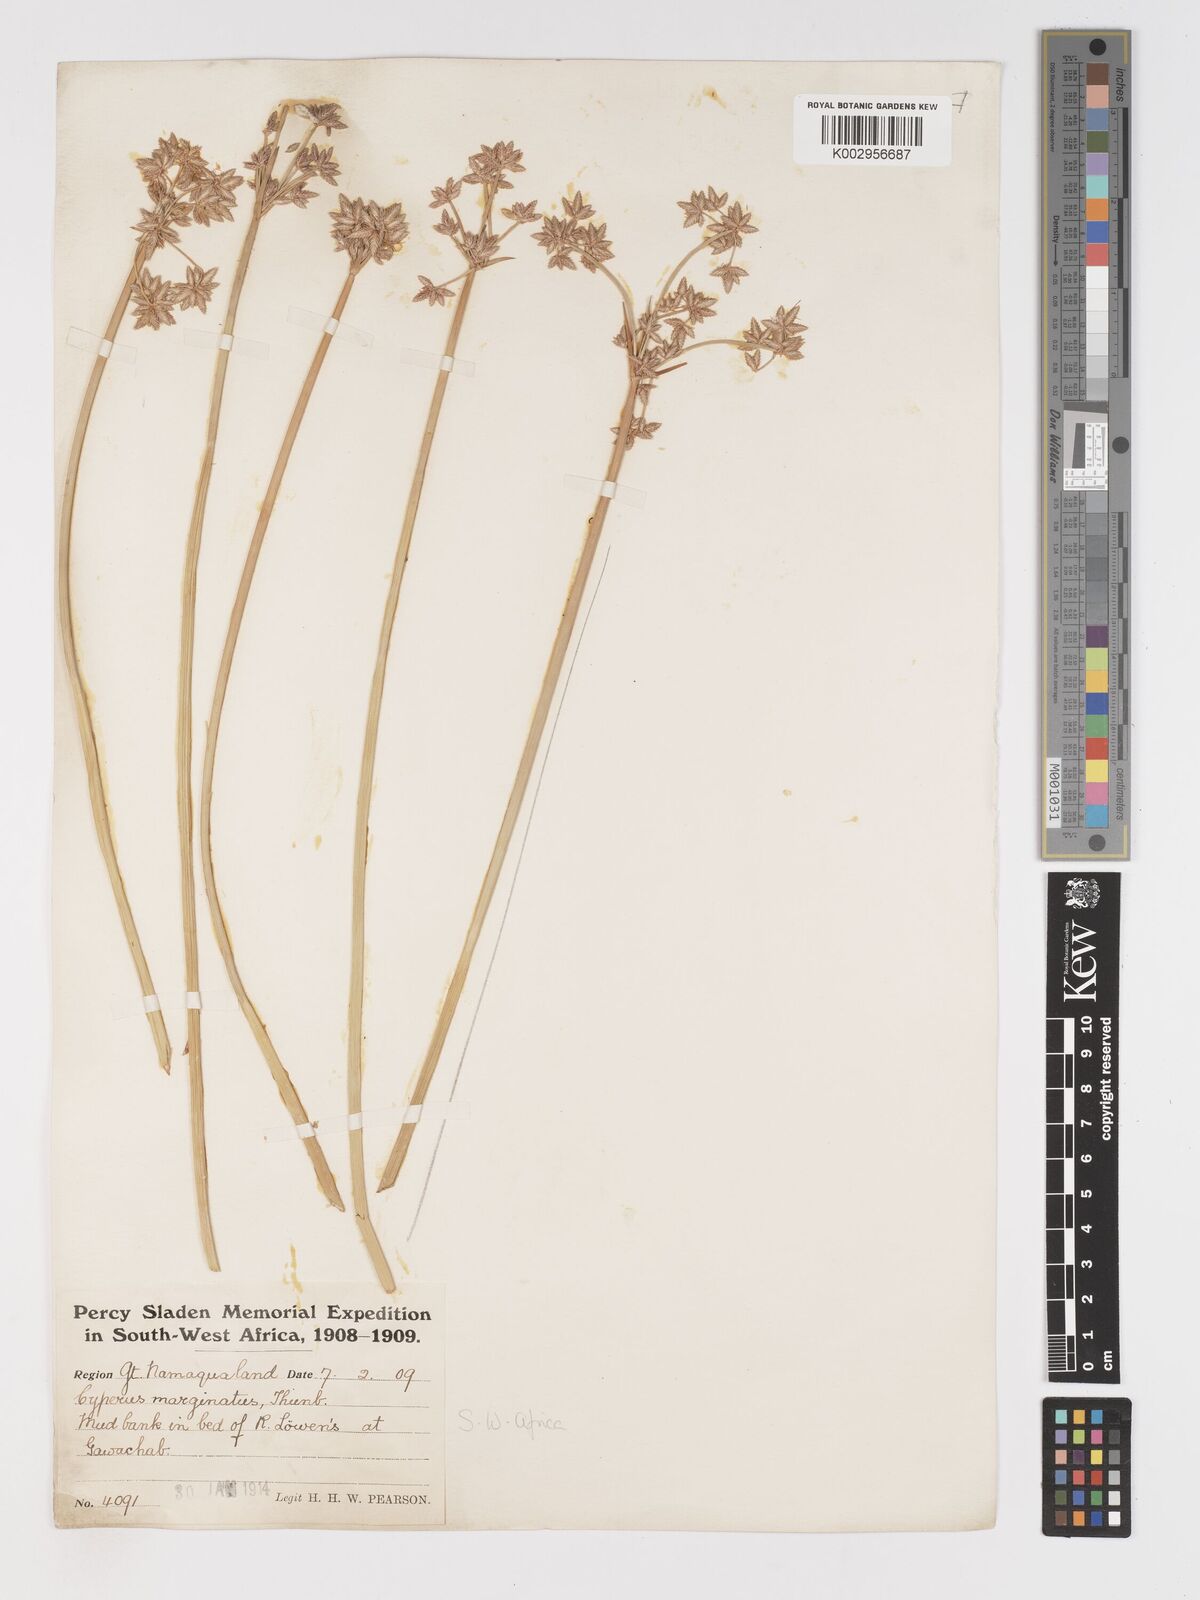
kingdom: Plantae
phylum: Tracheophyta
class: Liliopsida
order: Poales
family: Cyperaceae
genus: Cyperus
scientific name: Cyperus marginatus
